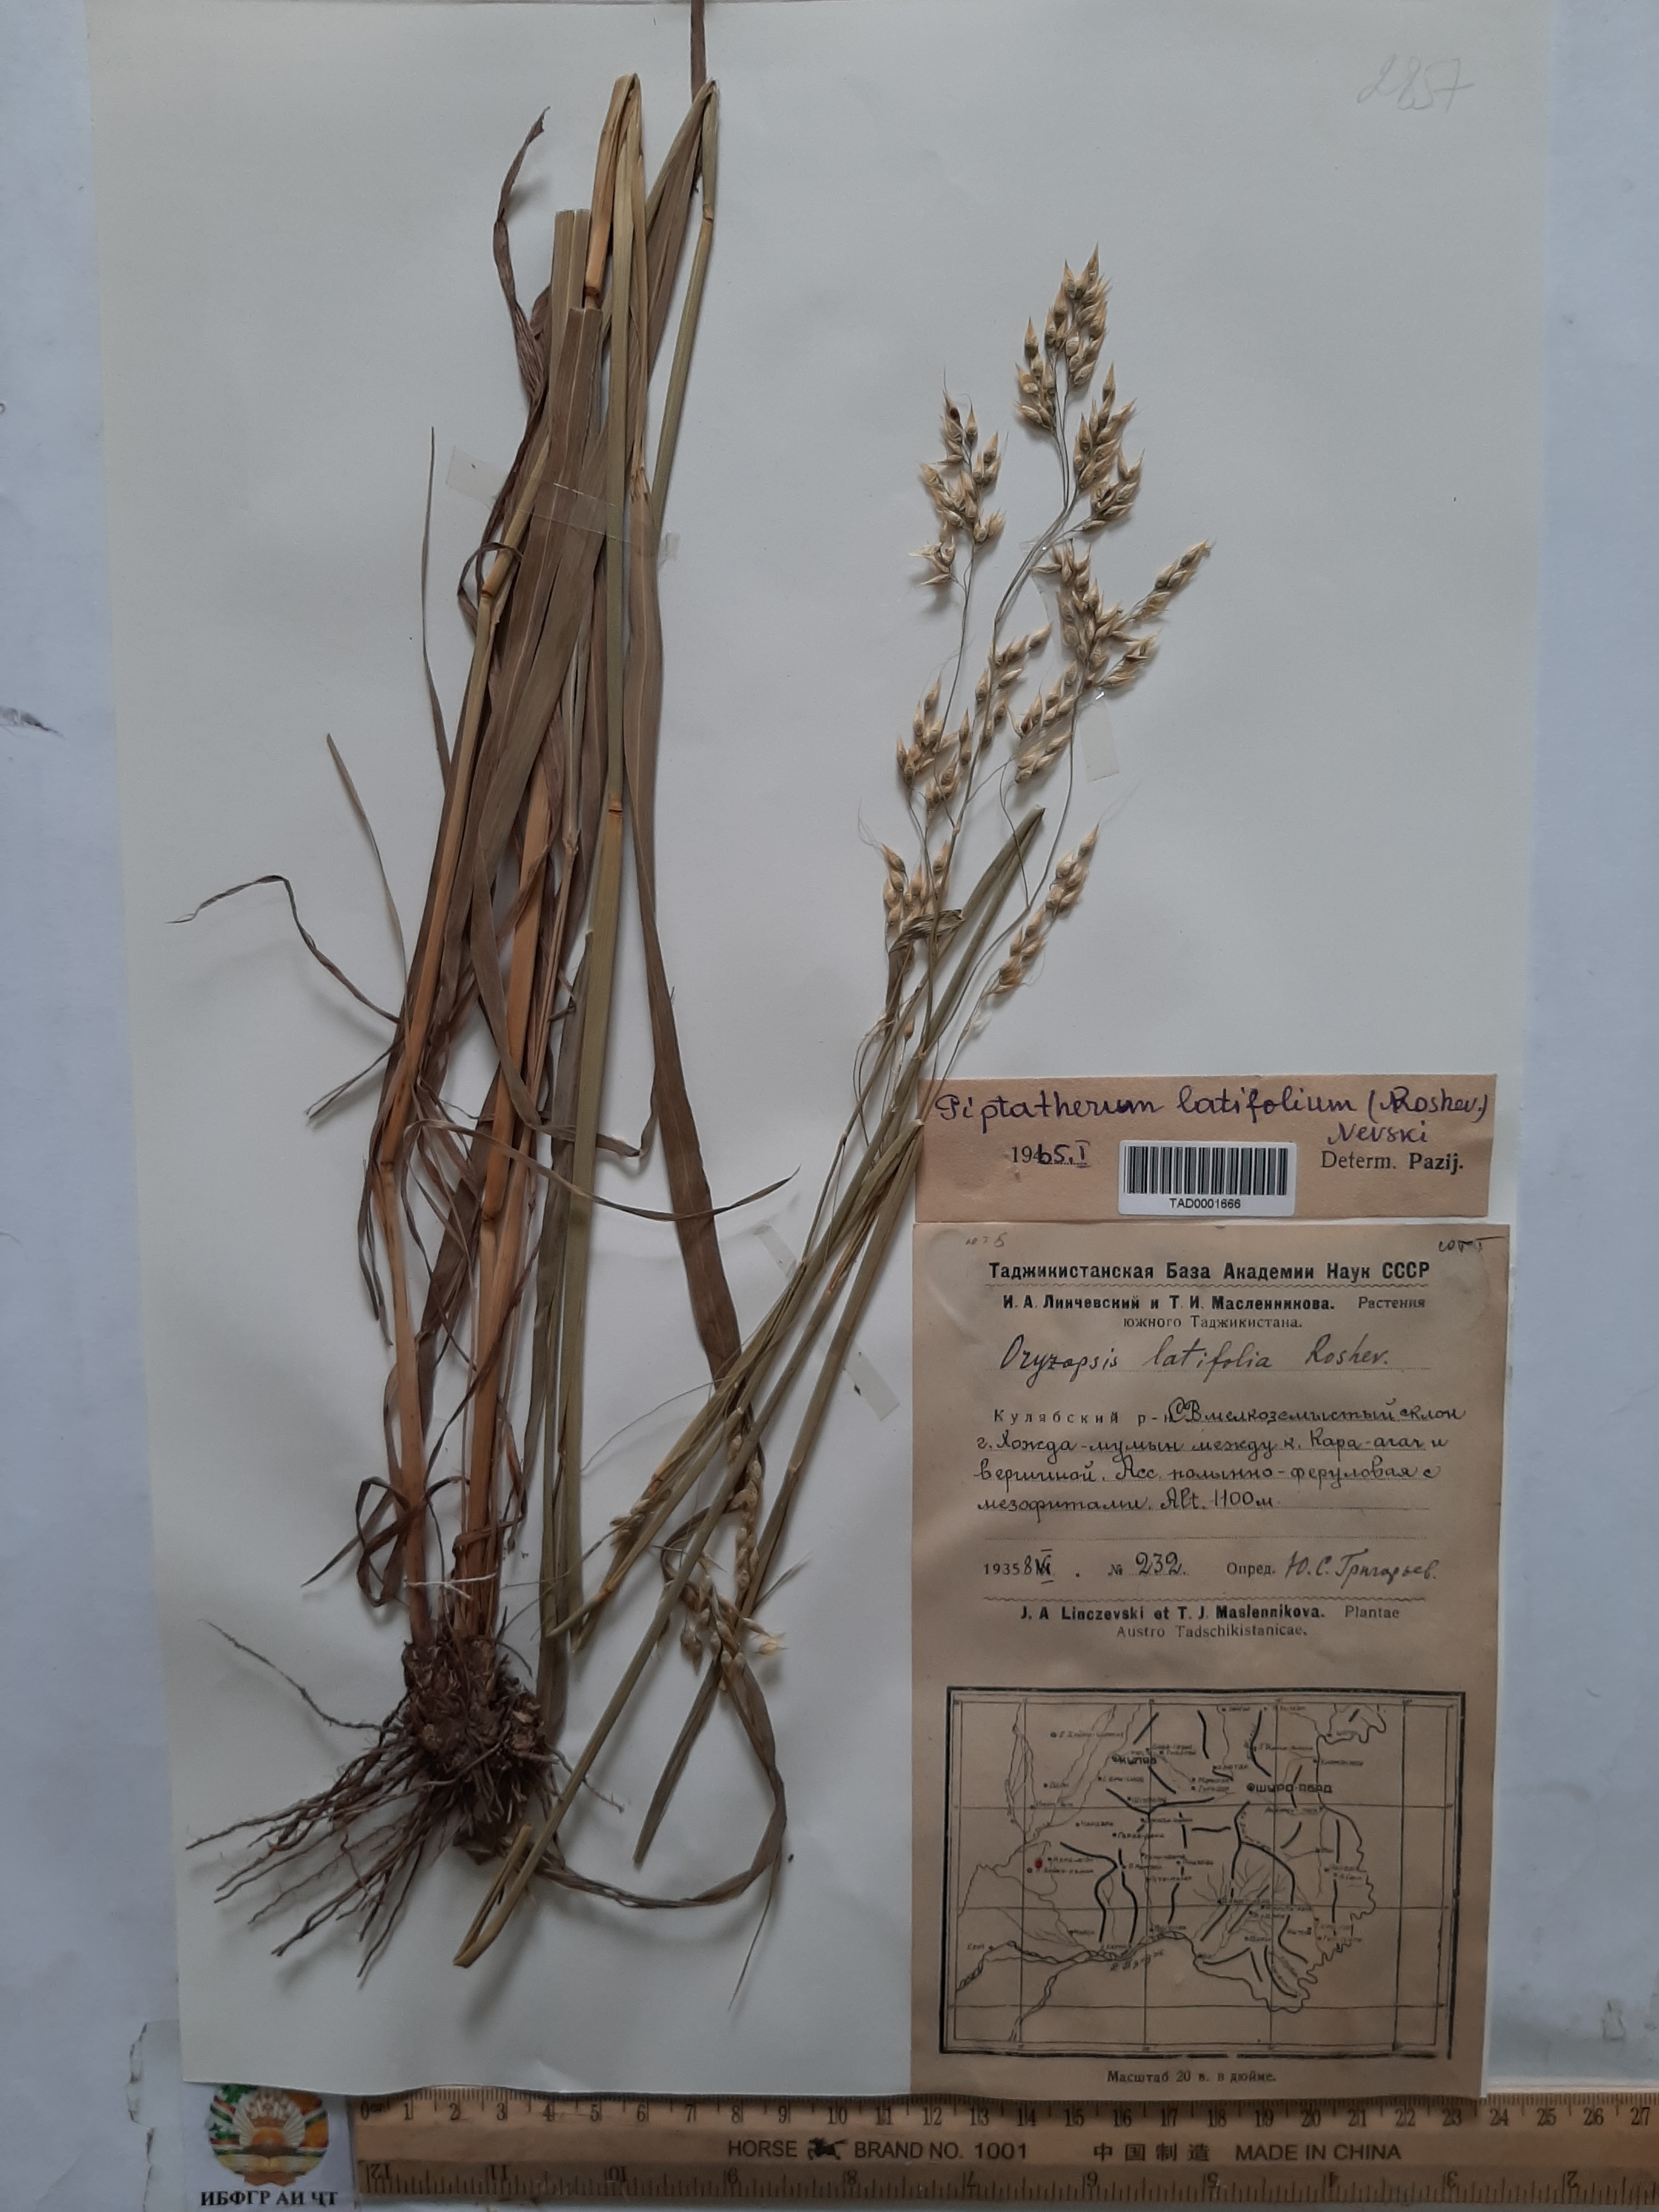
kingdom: Plantae
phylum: Tracheophyta
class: Liliopsida
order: Poales
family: Poaceae
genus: Piptatherum
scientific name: Piptatherum latifolium
